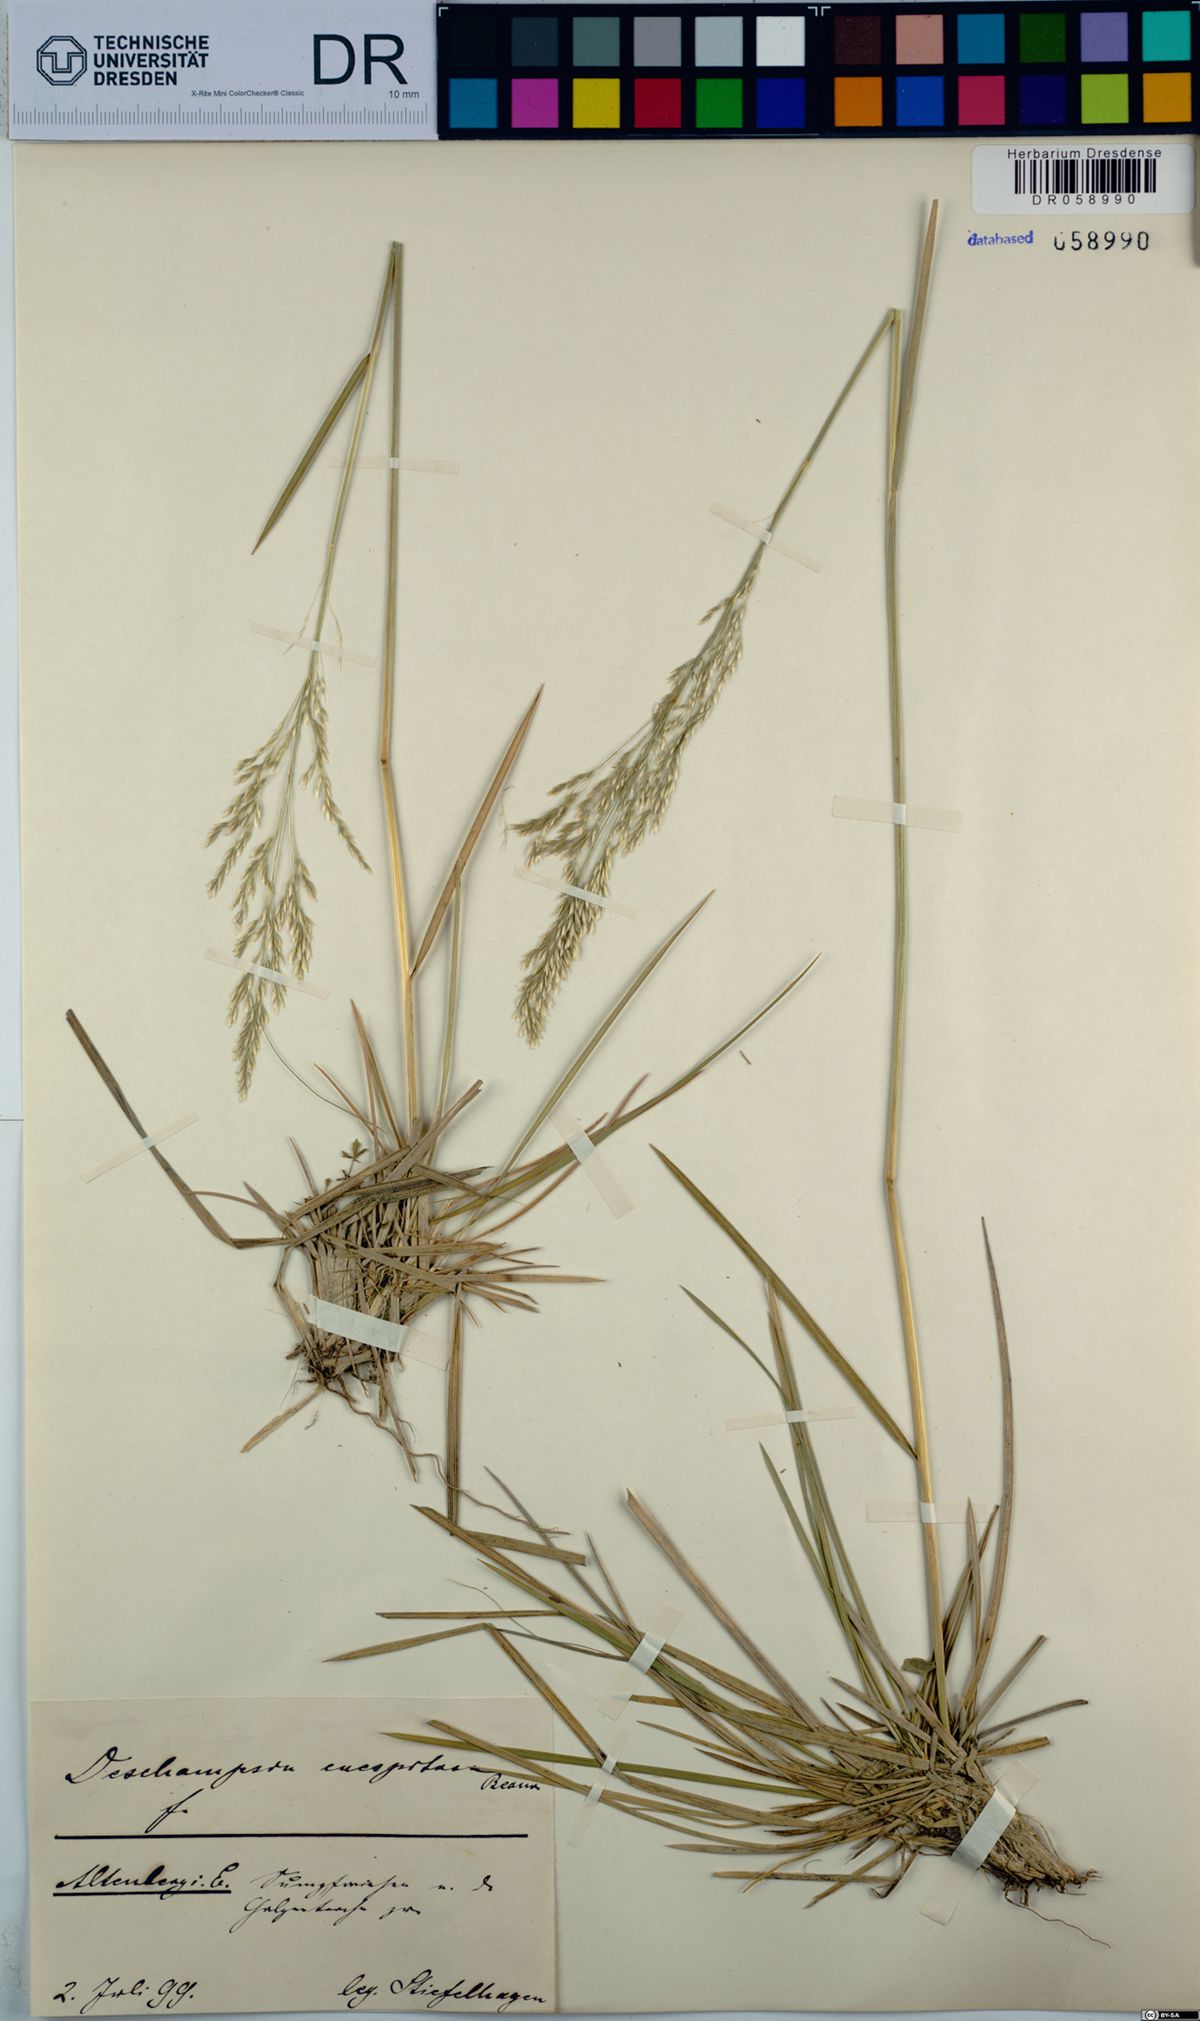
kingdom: Plantae
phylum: Tracheophyta
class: Liliopsida
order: Poales
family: Poaceae
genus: Deschampsia
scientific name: Deschampsia cespitosa
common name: Tufted hair-grass
